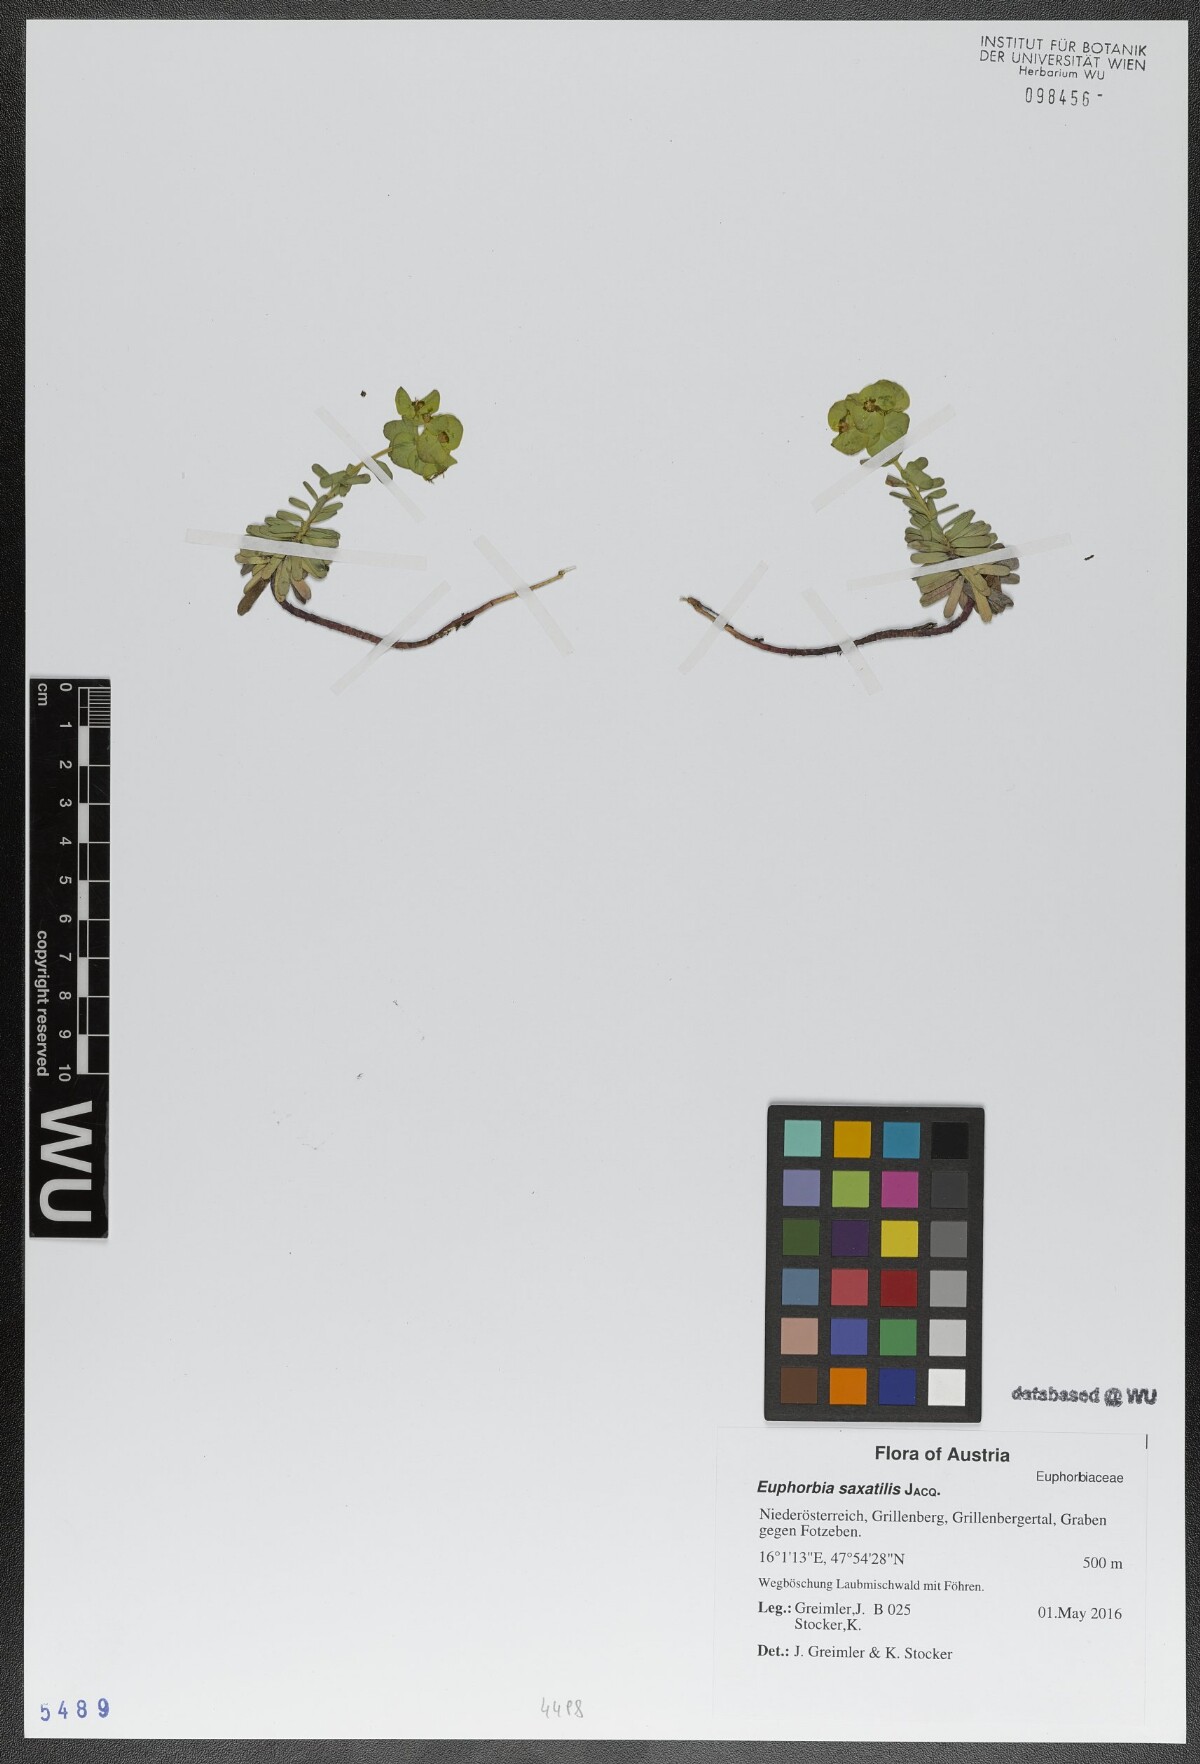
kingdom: Plantae
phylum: Tracheophyta
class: Magnoliopsida
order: Malpighiales
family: Euphorbiaceae
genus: Euphorbia
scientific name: Euphorbia saxatilis
